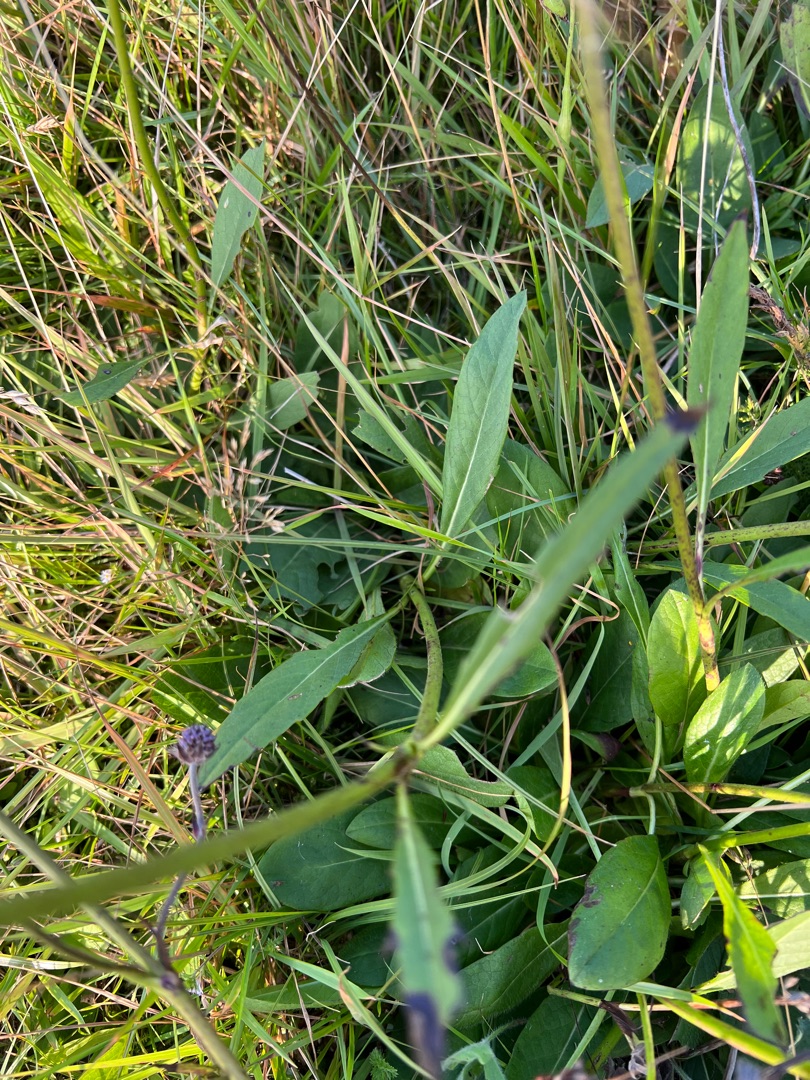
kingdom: Plantae
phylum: Tracheophyta
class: Magnoliopsida
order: Dipsacales
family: Caprifoliaceae
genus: Succisa
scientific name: Succisa pratensis
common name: Djævelsbid
